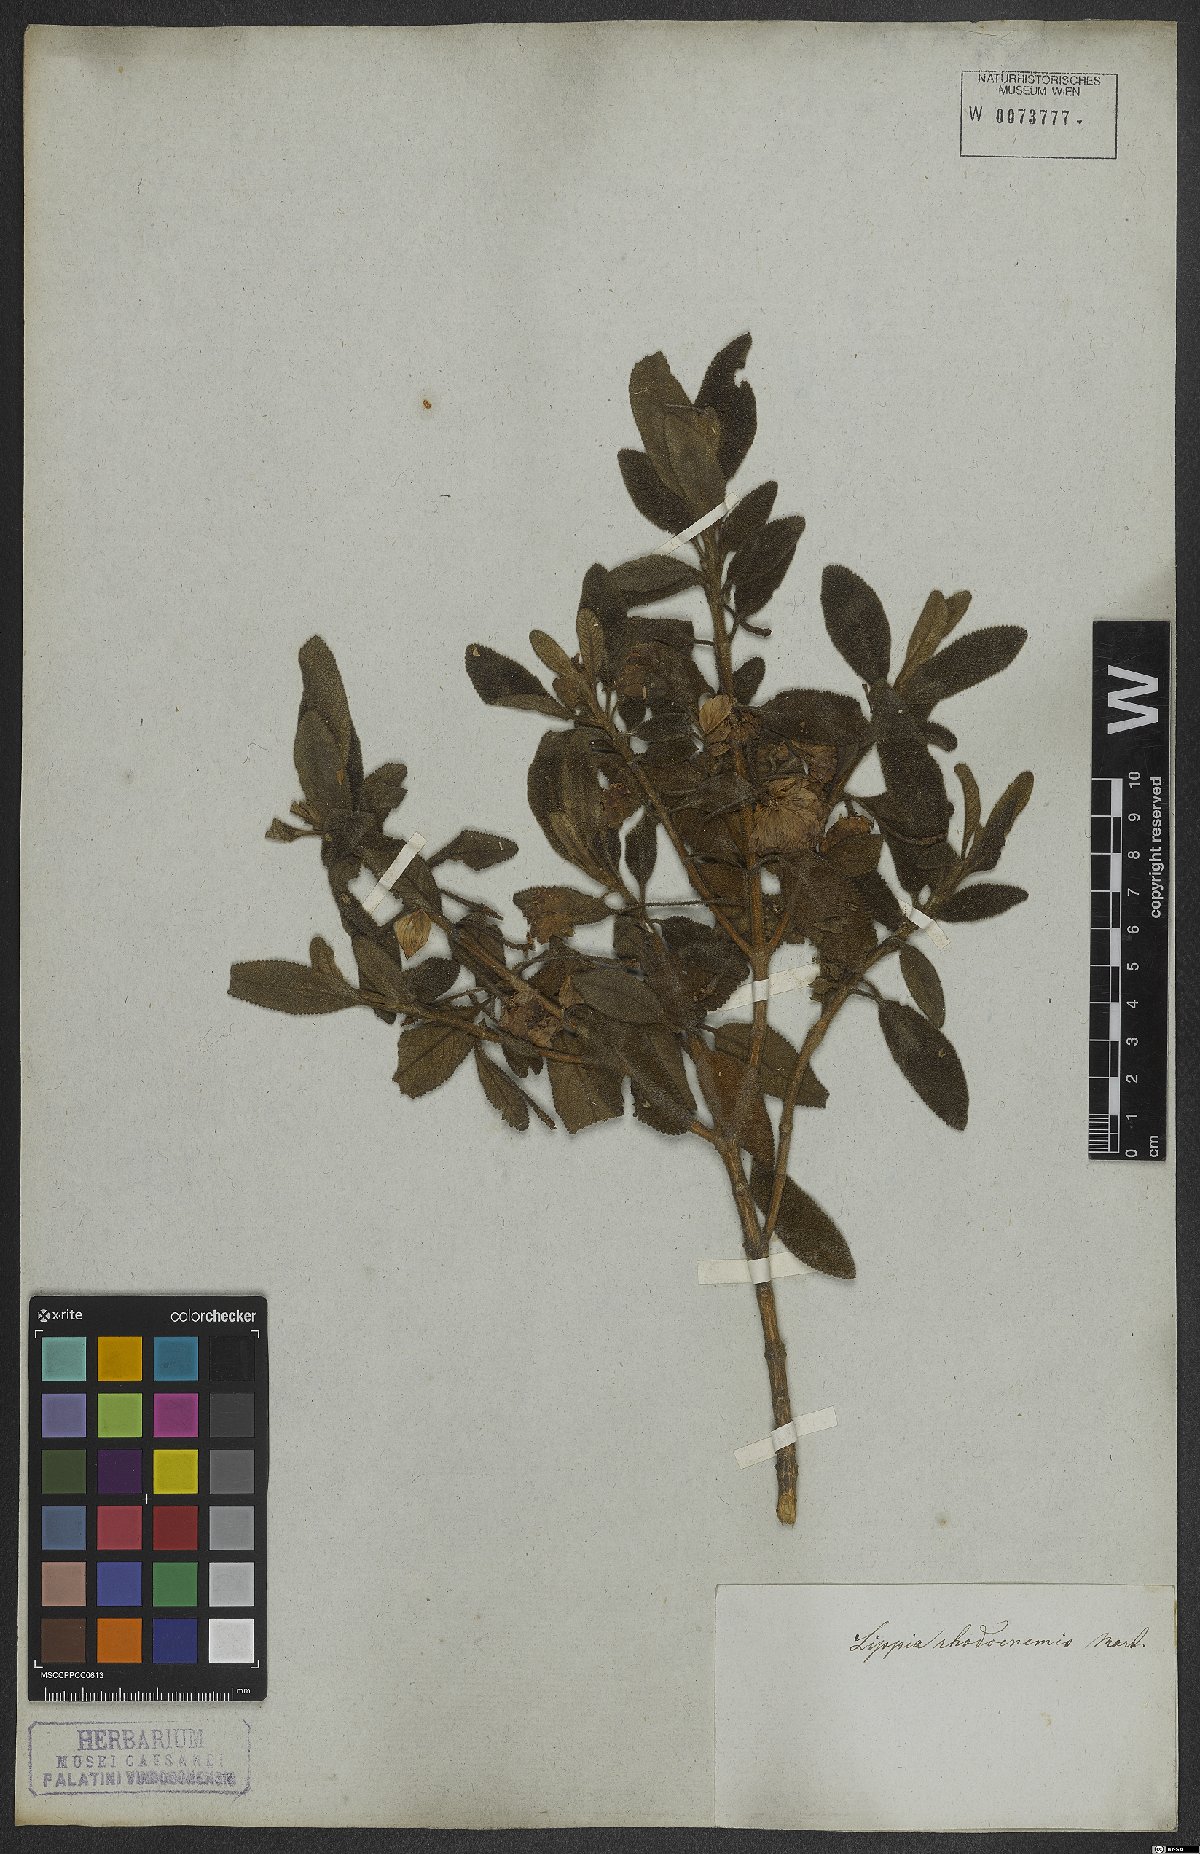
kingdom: Plantae
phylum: Tracheophyta
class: Magnoliopsida
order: Lamiales
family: Verbenaceae
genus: Lippia
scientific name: Lippia rhodocnemis
